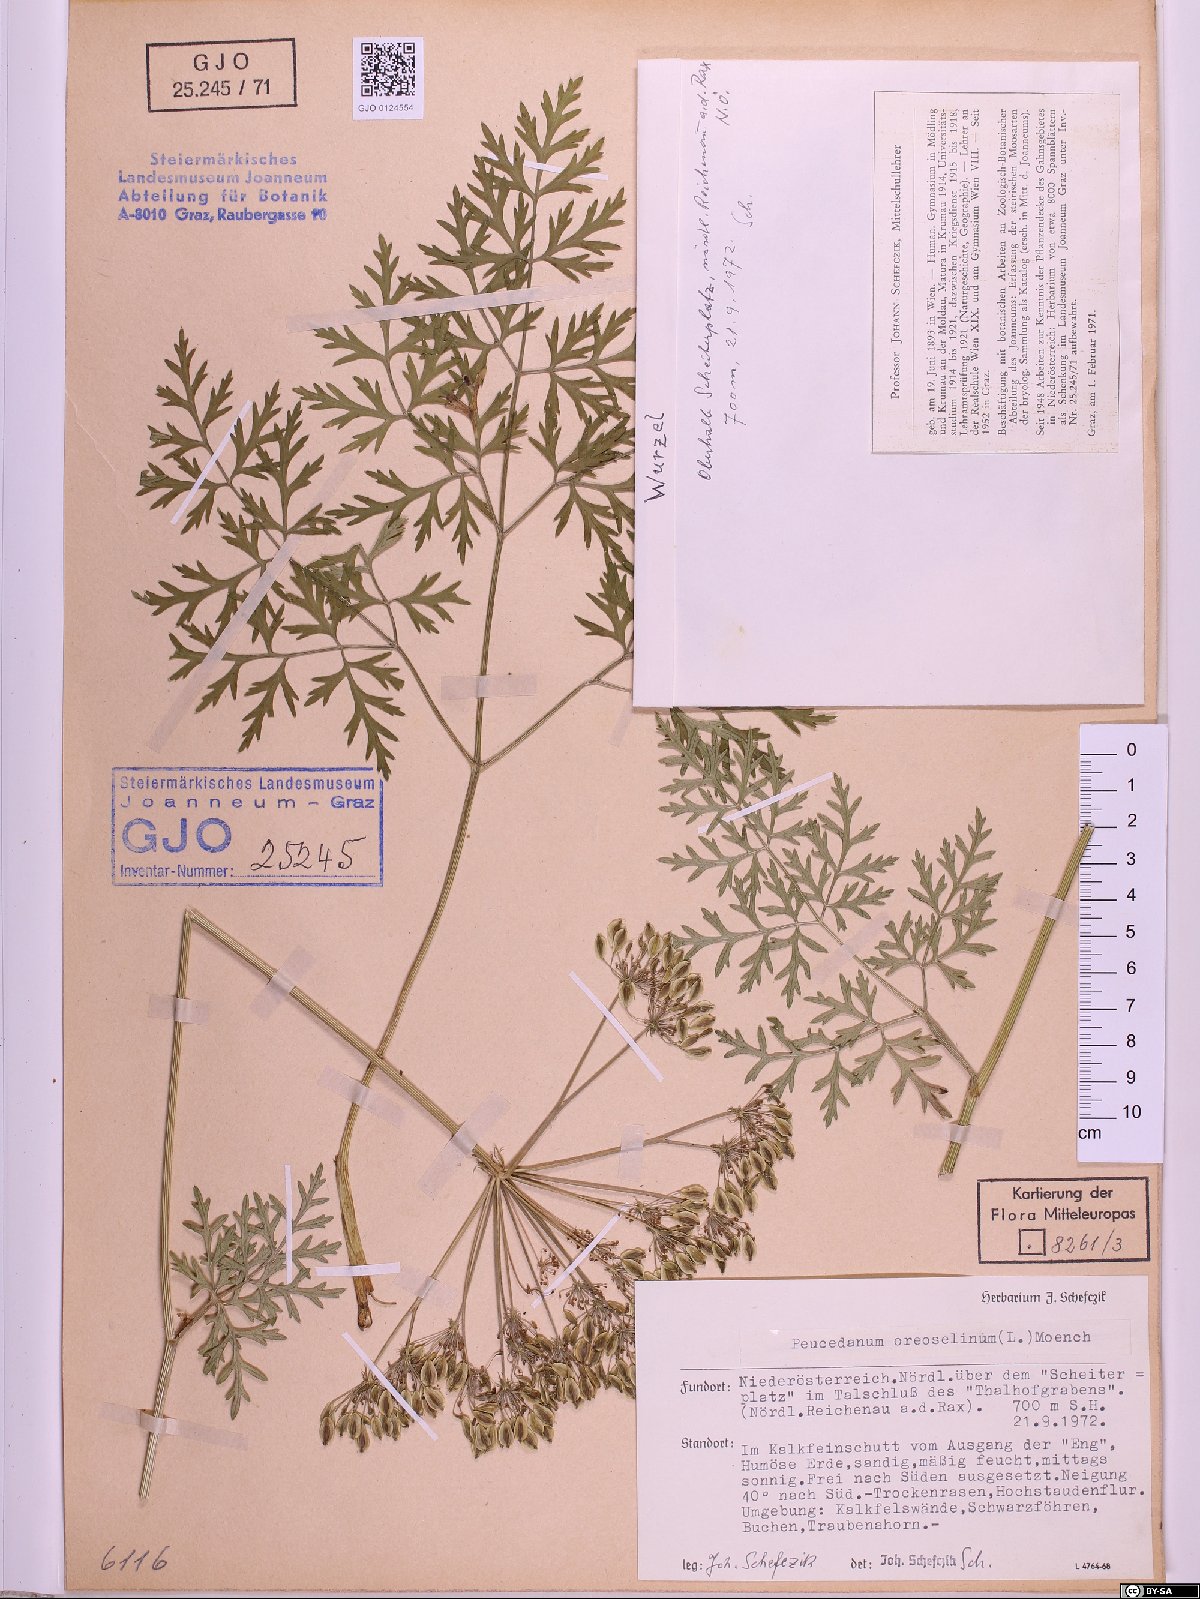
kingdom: Plantae
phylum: Tracheophyta
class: Magnoliopsida
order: Apiales
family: Apiaceae
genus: Oreoselinum
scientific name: Oreoselinum nigrum
